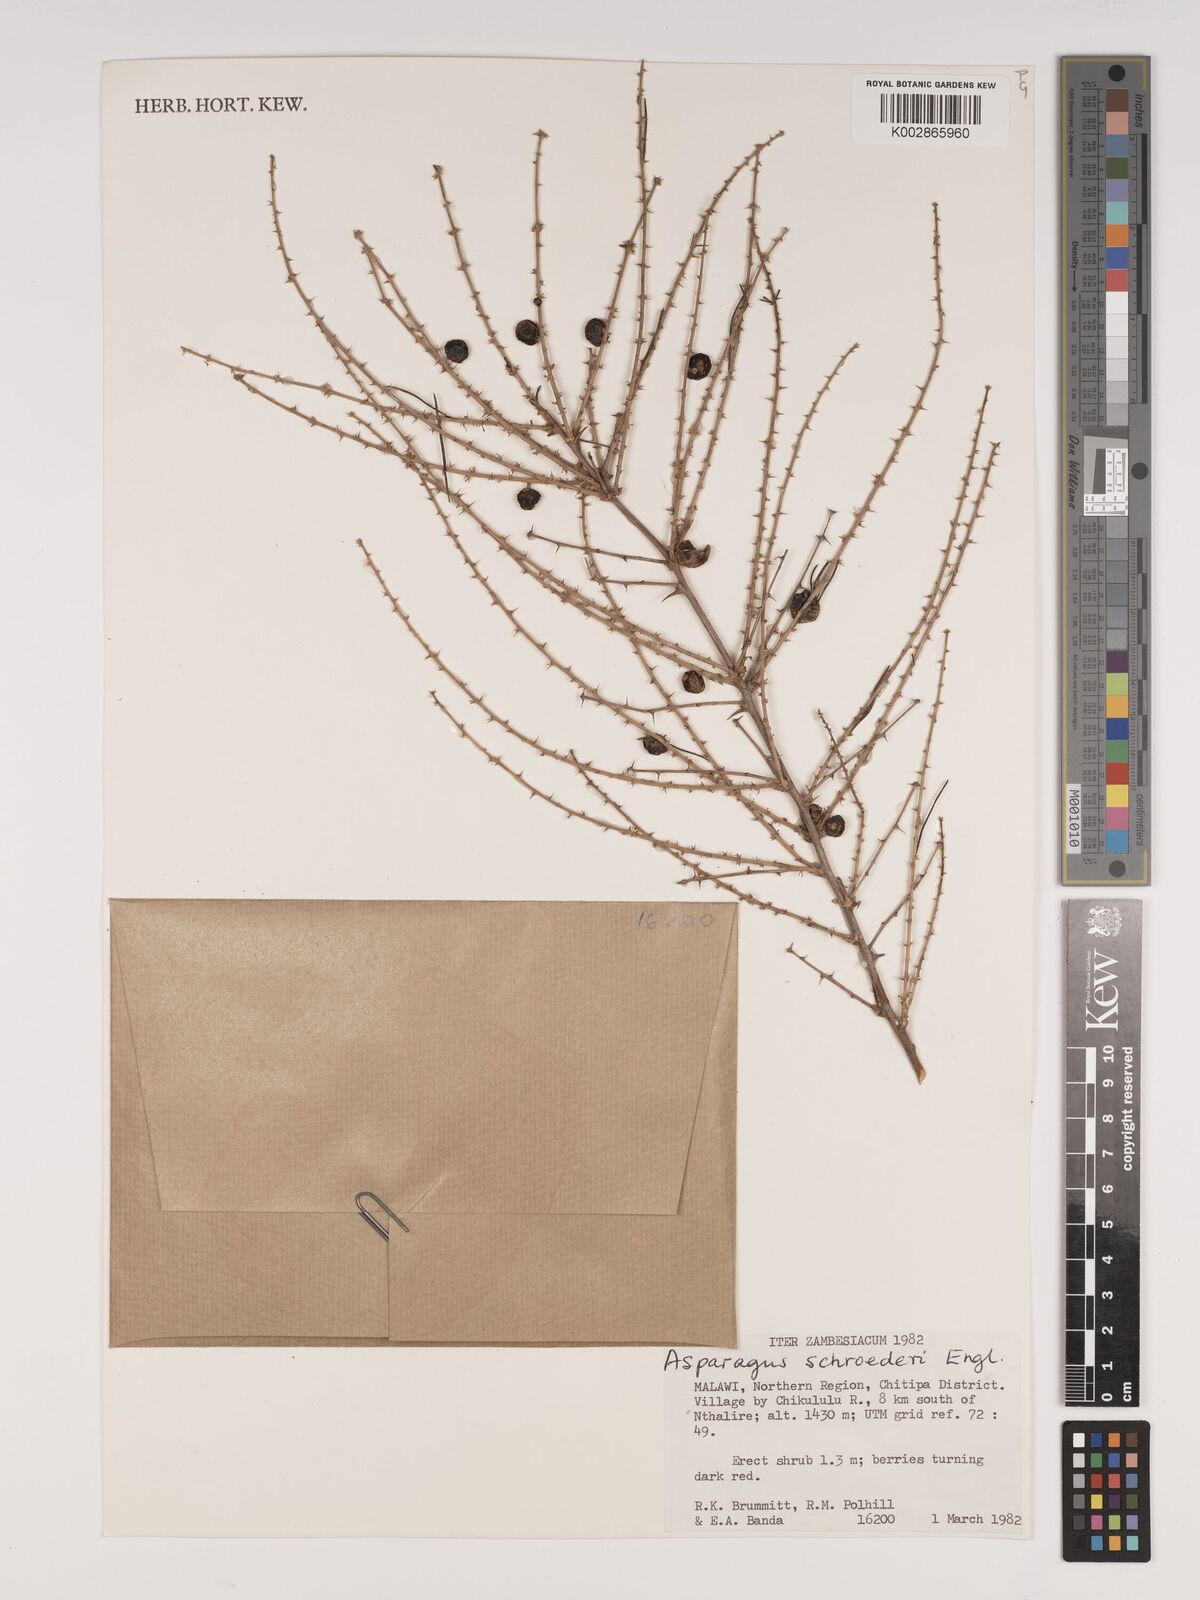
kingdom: Plantae
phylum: Tracheophyta
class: Liliopsida
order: Asparagales
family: Asparagaceae
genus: Asparagus
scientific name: Asparagus schroederi
